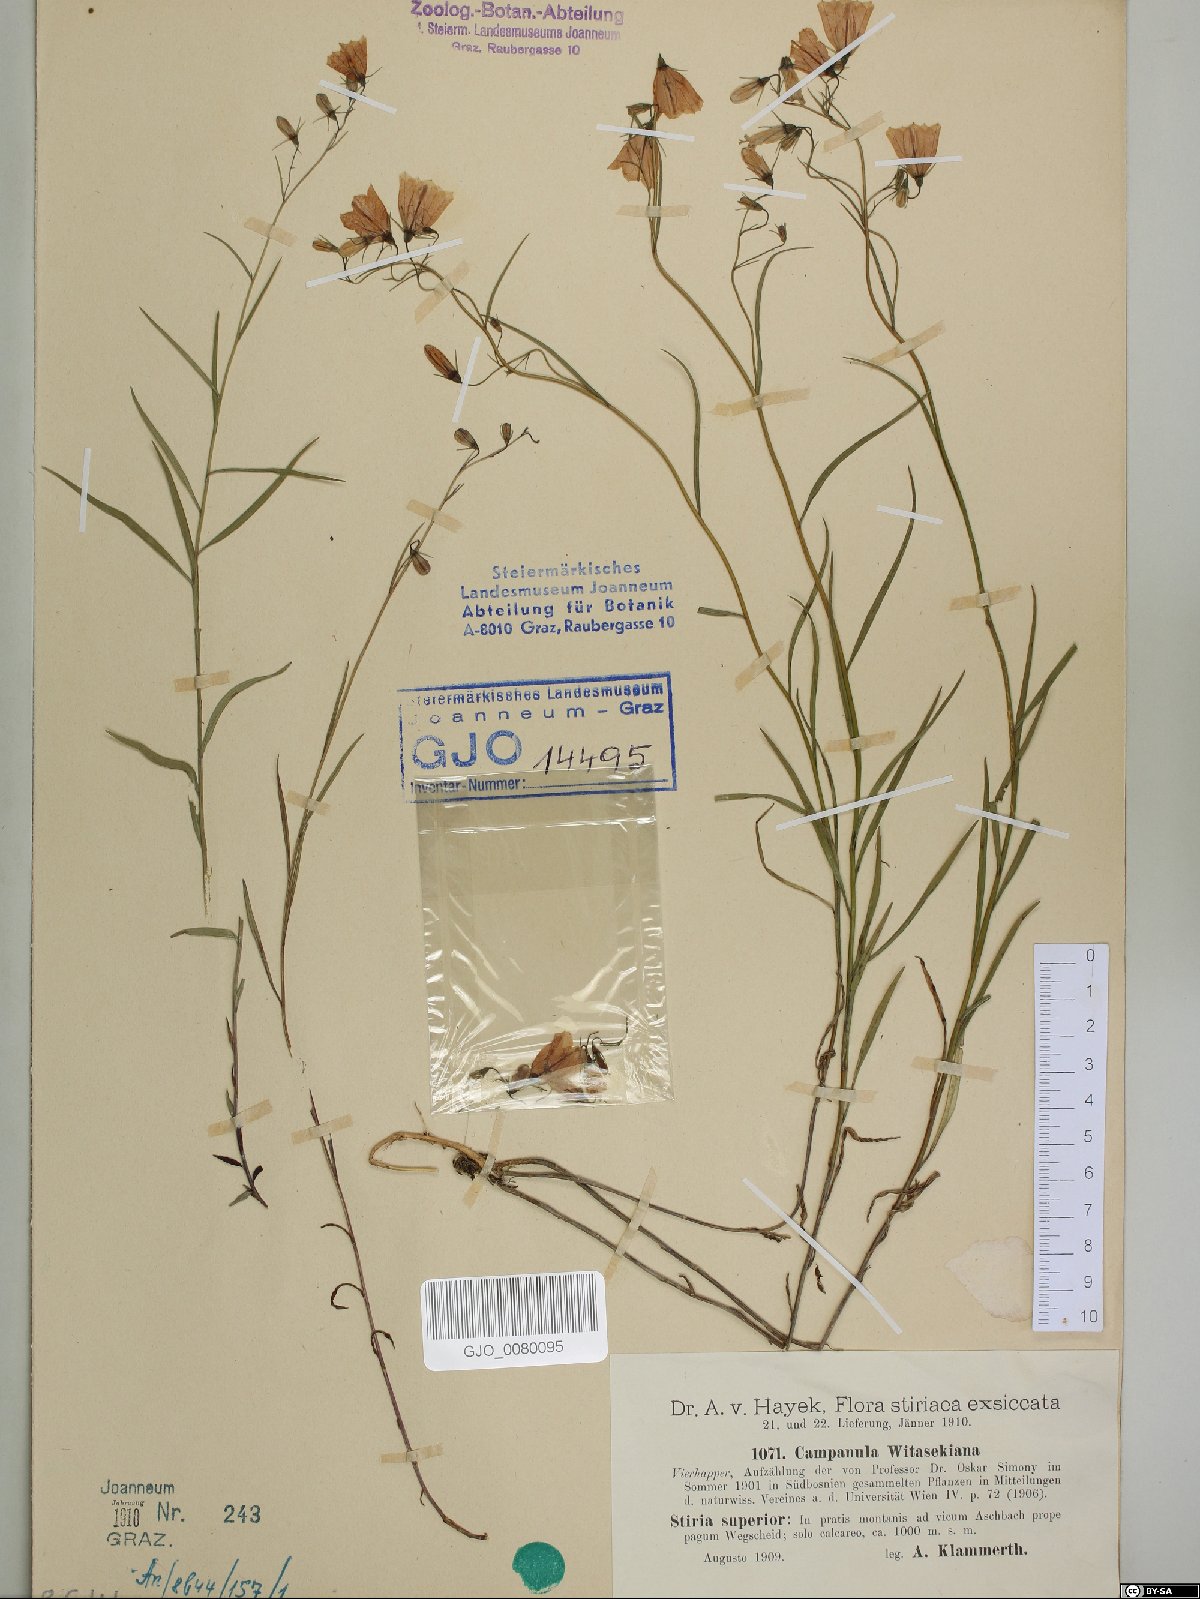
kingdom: Plantae
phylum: Tracheophyta
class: Magnoliopsida
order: Asterales
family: Campanulaceae
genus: Campanula
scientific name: Campanula witasekiana
